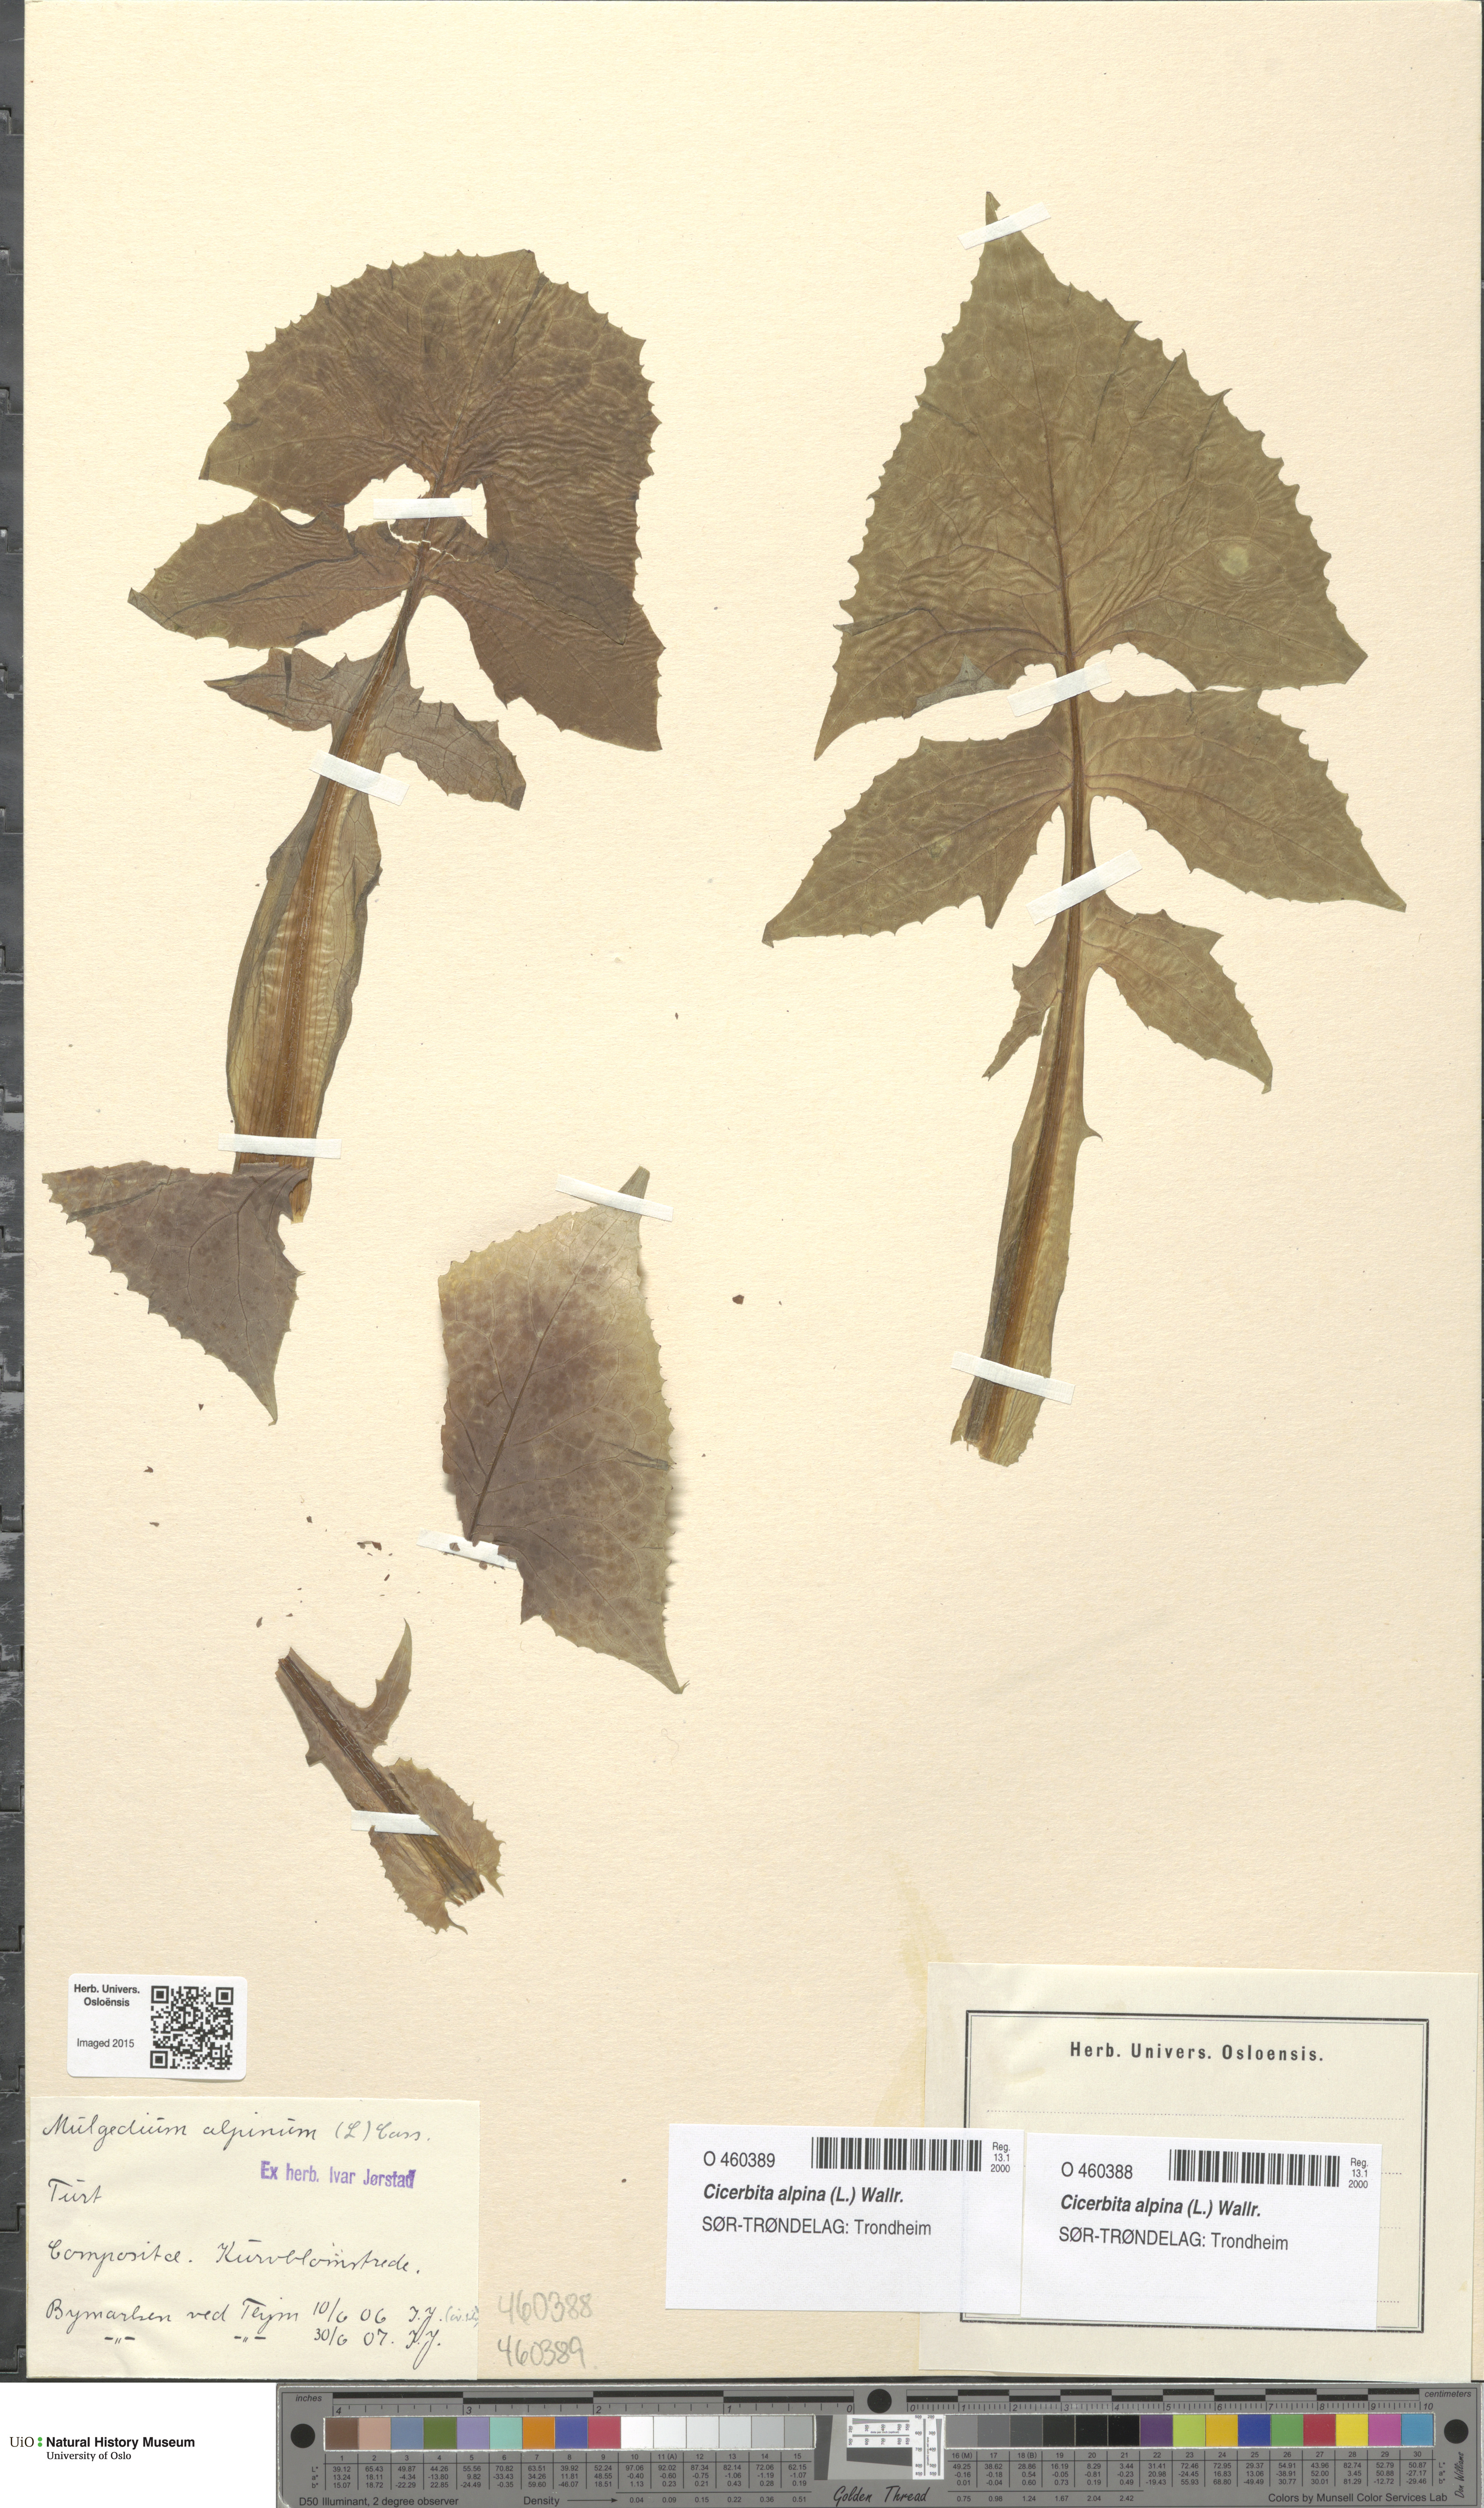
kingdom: Plantae
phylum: Tracheophyta
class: Magnoliopsida
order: Asterales
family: Asteraceae
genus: Cicerbita
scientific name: Cicerbita alpina
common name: Alpine blue-sow-thistle
